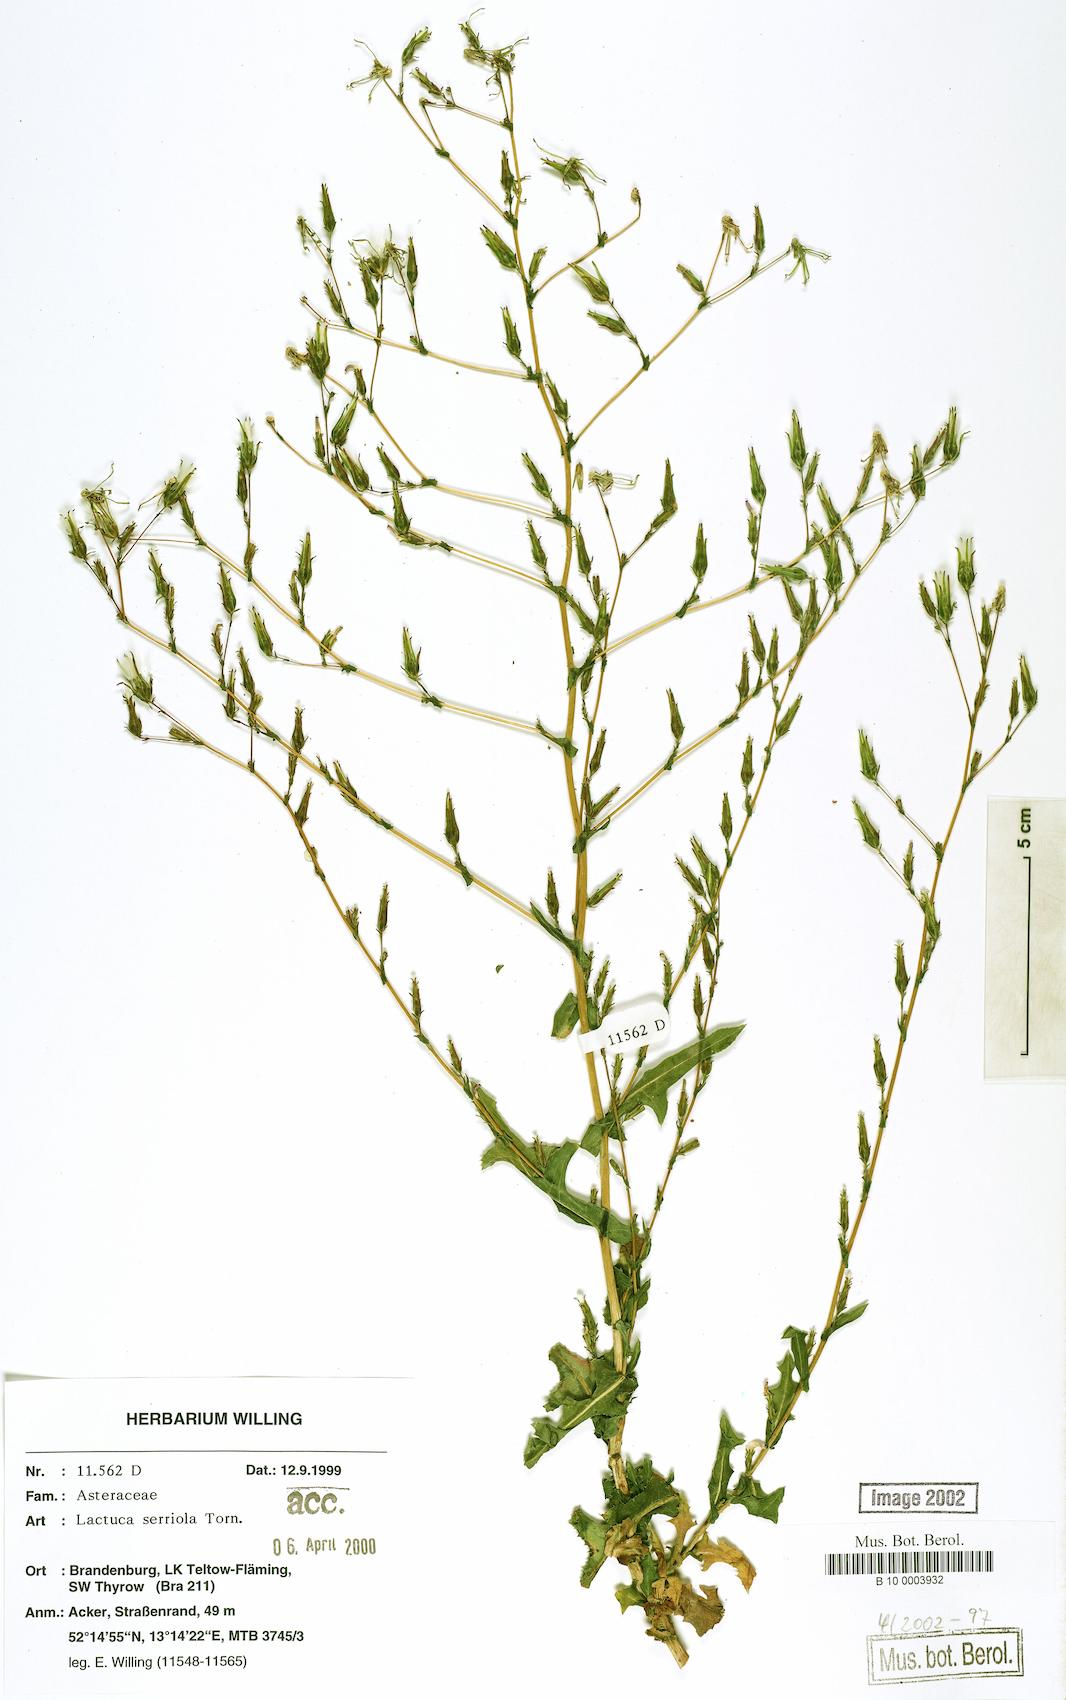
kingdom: Plantae
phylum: Tracheophyta
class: Magnoliopsida
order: Asterales
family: Asteraceae
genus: Lactuca
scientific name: Lactuca serriola
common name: Prickly lettuce
